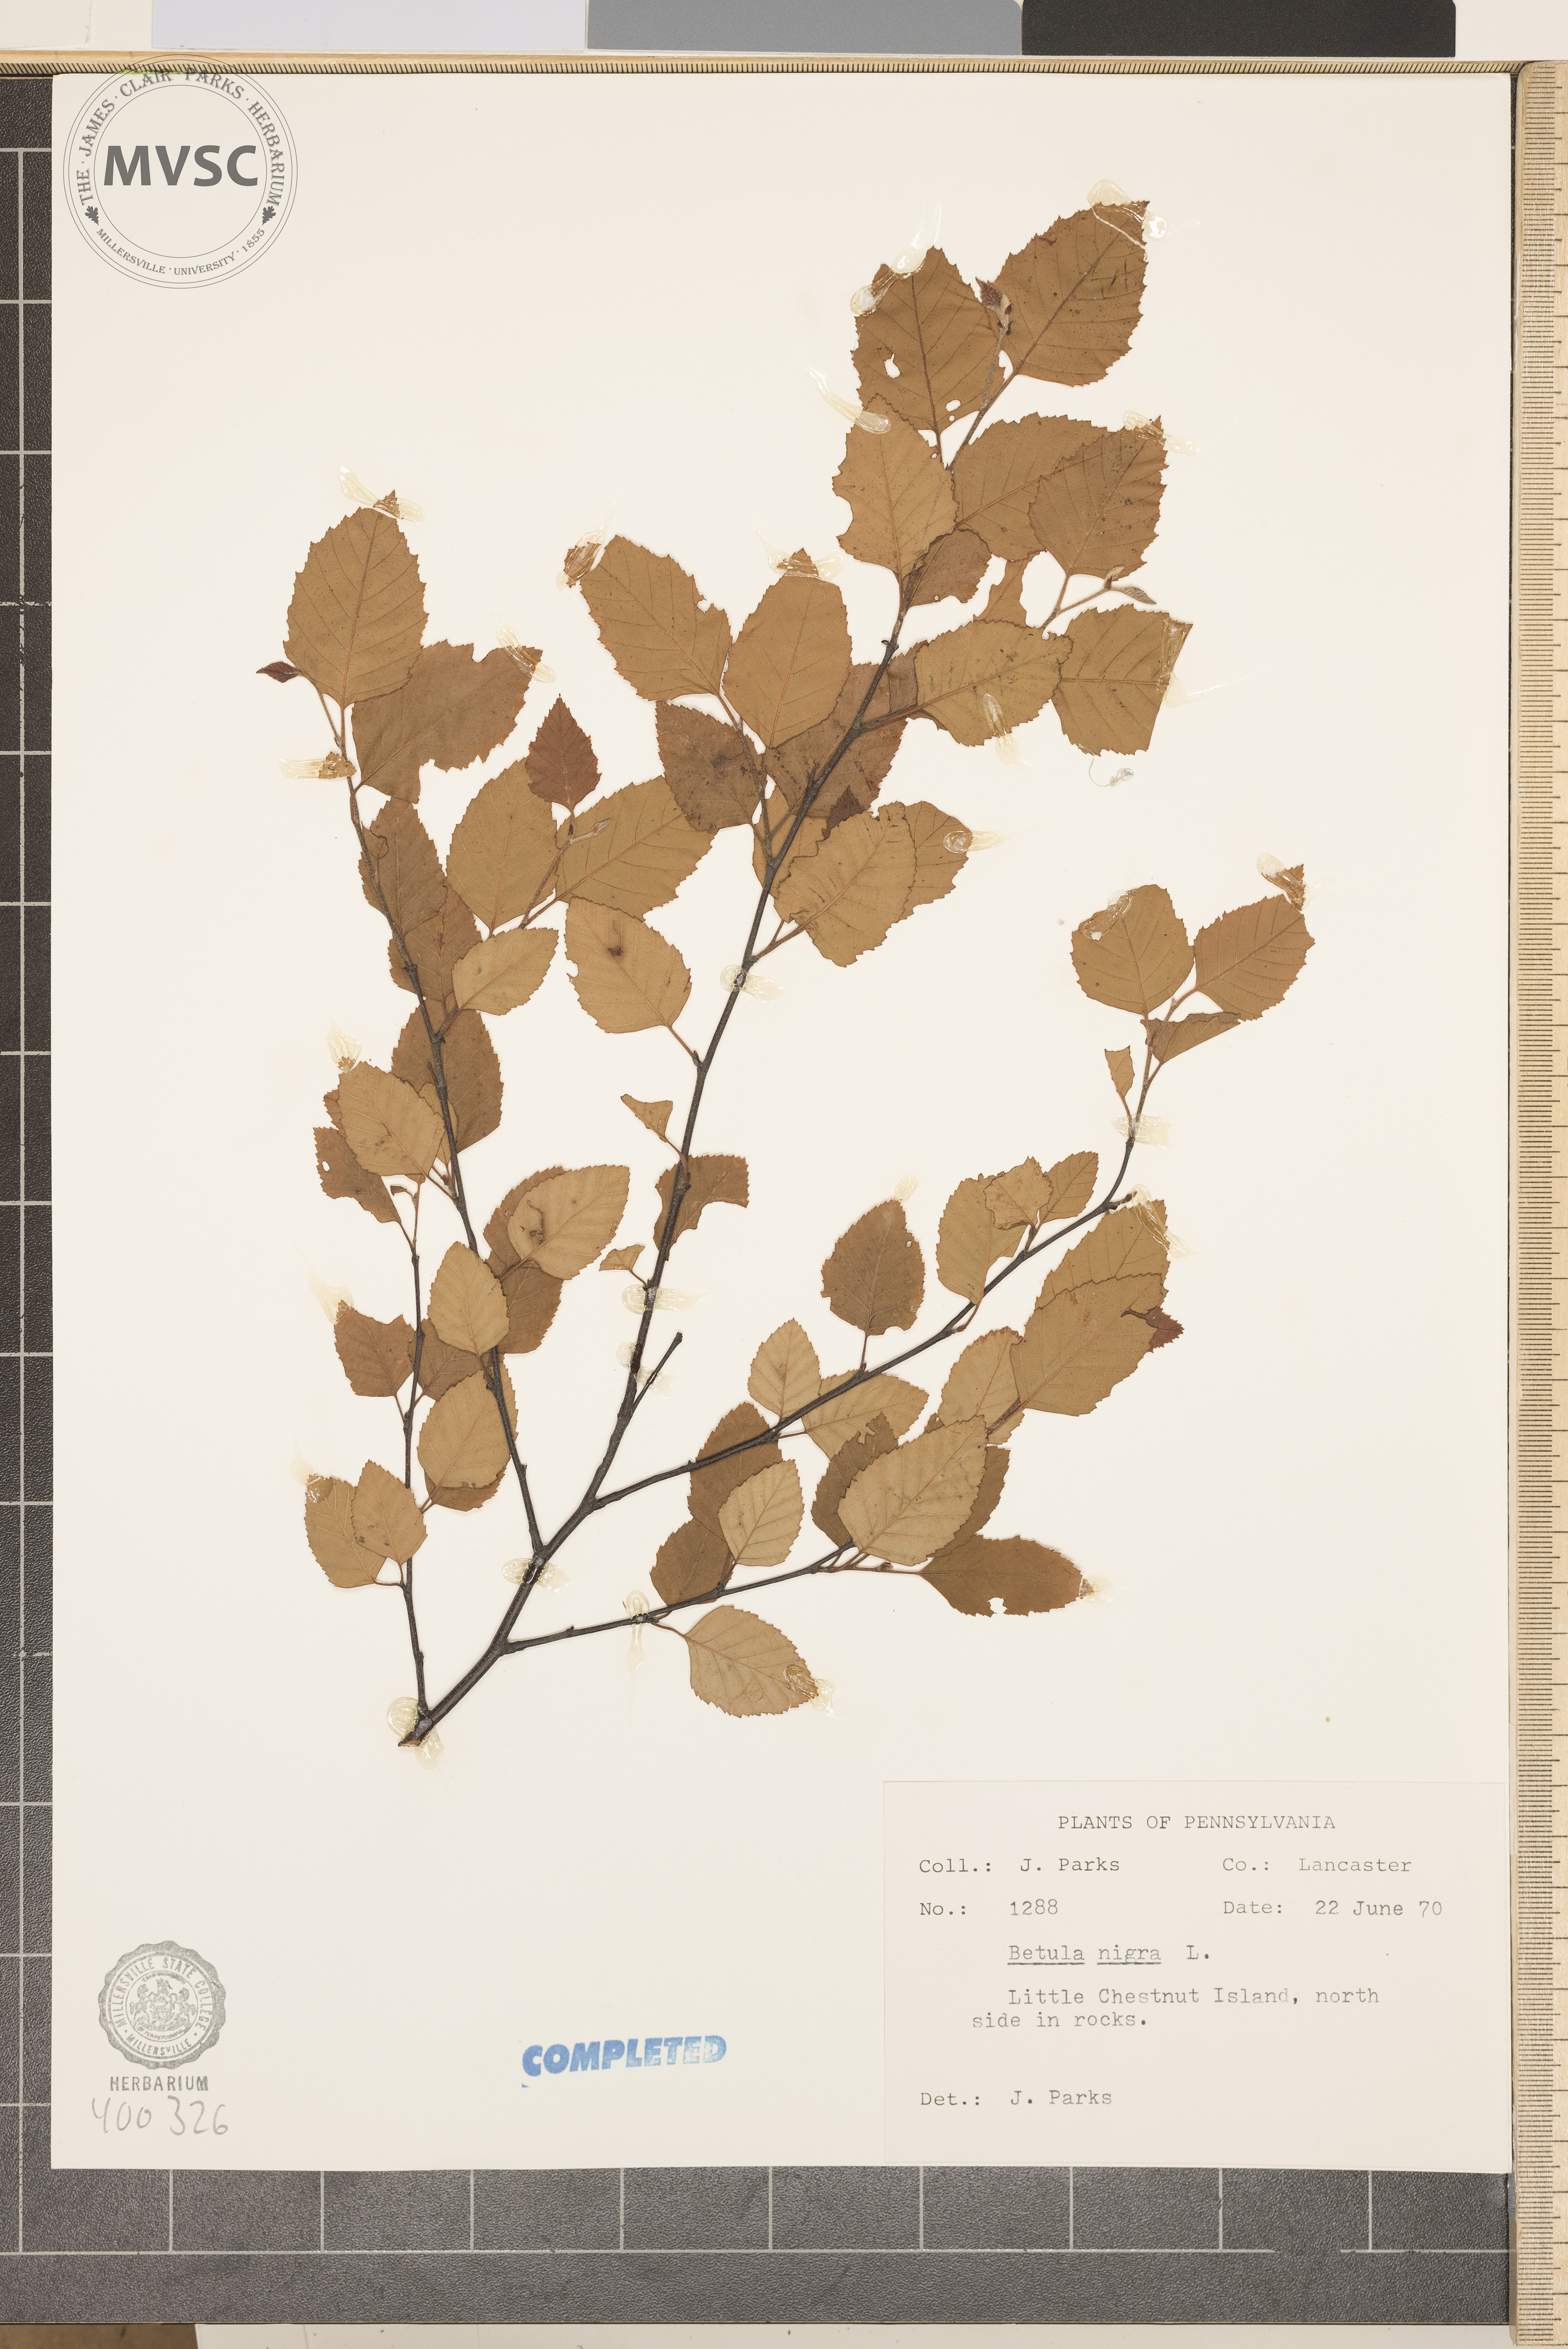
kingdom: Plantae
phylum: Tracheophyta
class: Magnoliopsida
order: Fagales
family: Betulaceae
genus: Betula
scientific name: Betula nigra
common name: river birch
